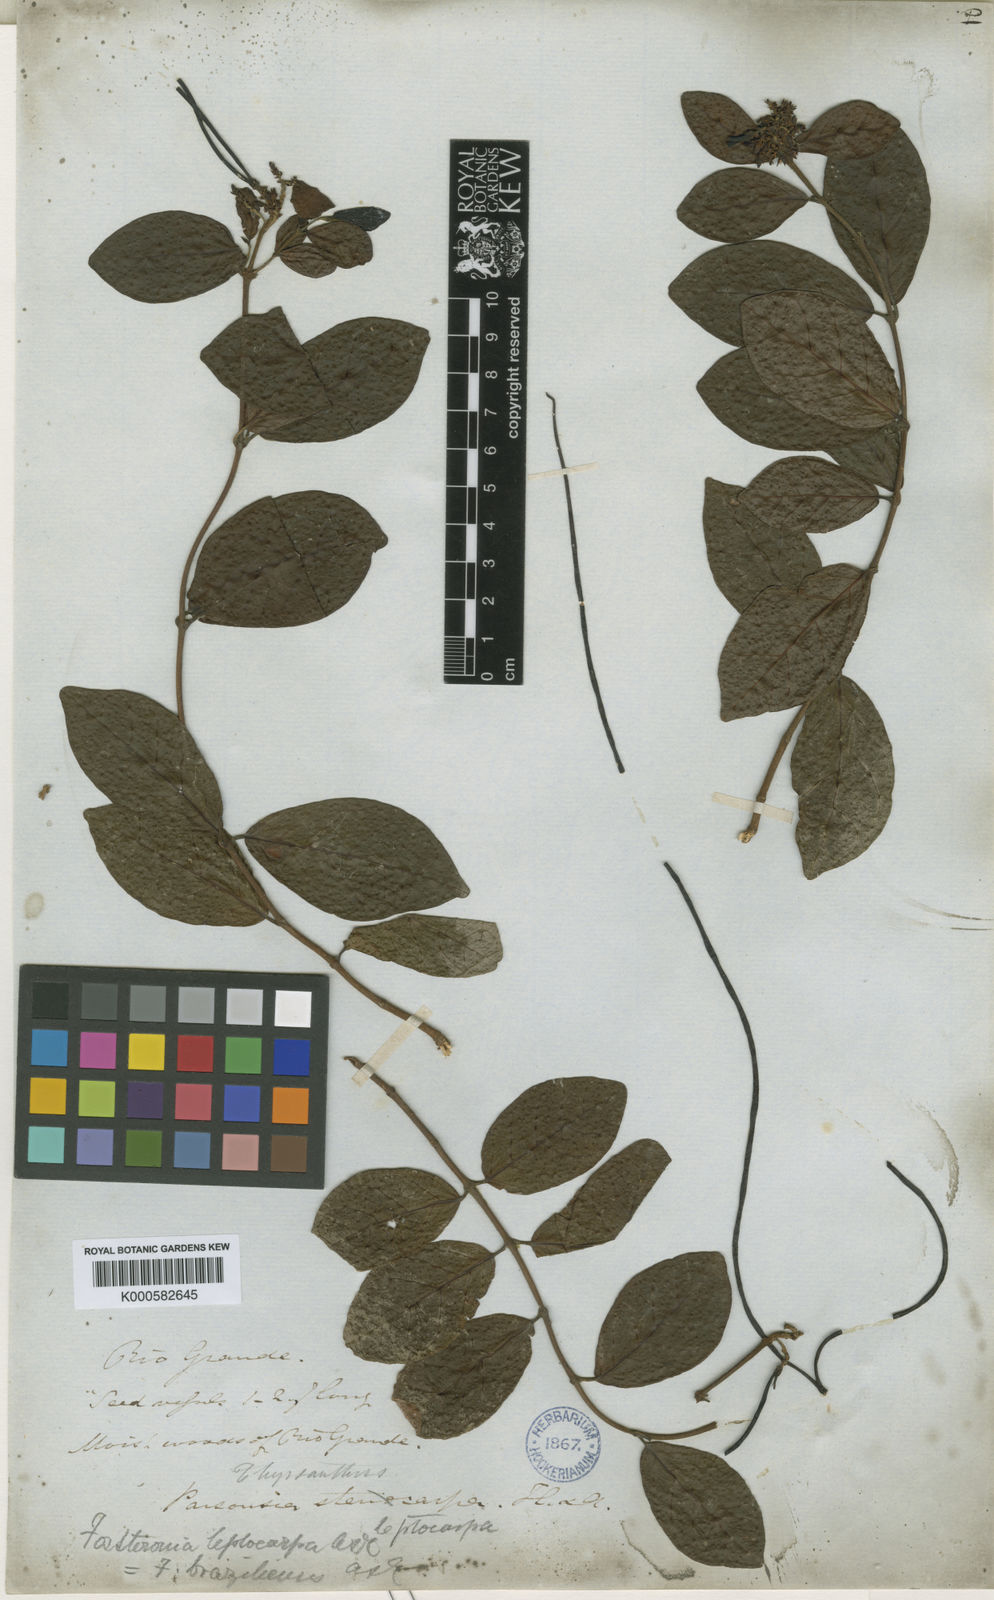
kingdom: Plantae
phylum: Tracheophyta
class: Magnoliopsida
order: Gentianales
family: Apocynaceae
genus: Forsteronia
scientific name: Forsteronia leptocarpa
